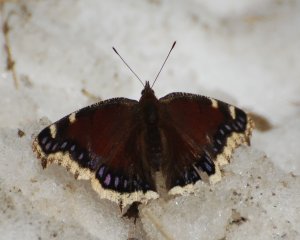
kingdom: Animalia
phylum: Arthropoda
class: Insecta
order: Lepidoptera
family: Nymphalidae
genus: Nymphalis
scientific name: Nymphalis antiopa
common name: Mourning Cloak
